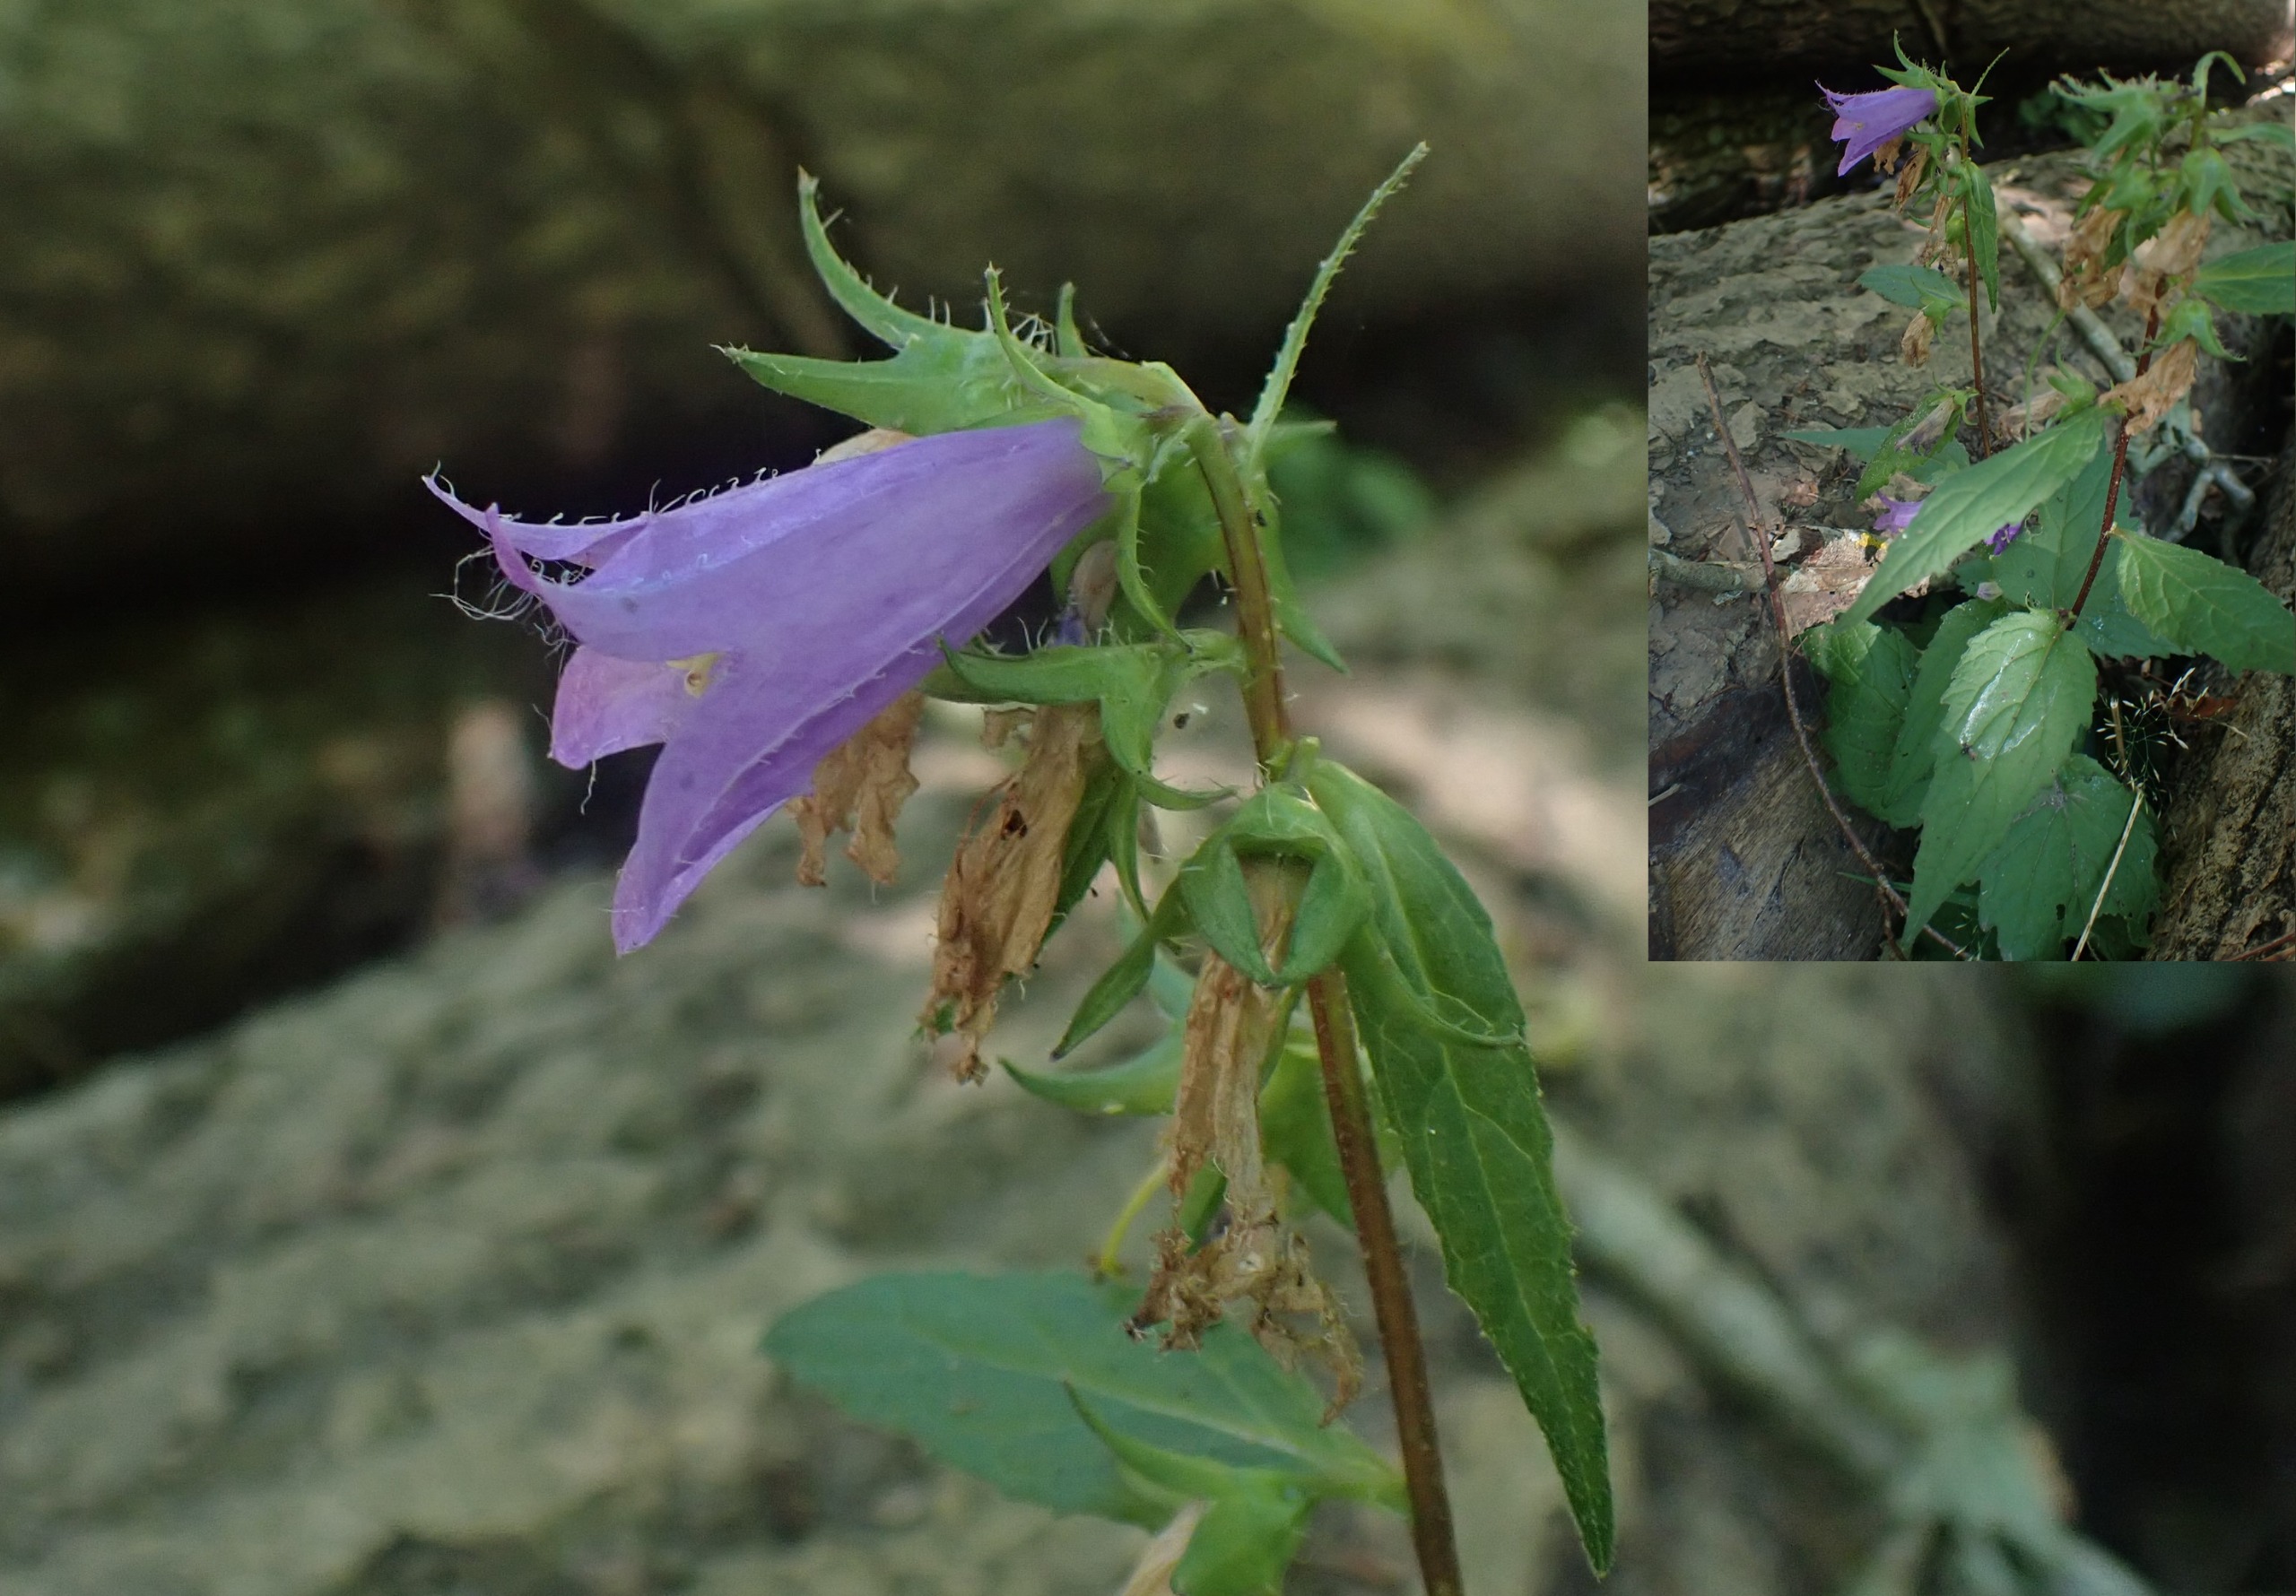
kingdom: Plantae
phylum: Tracheophyta
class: Magnoliopsida
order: Asterales
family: Campanulaceae
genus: Campanula
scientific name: Campanula trachelium
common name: Nælde-klokke
